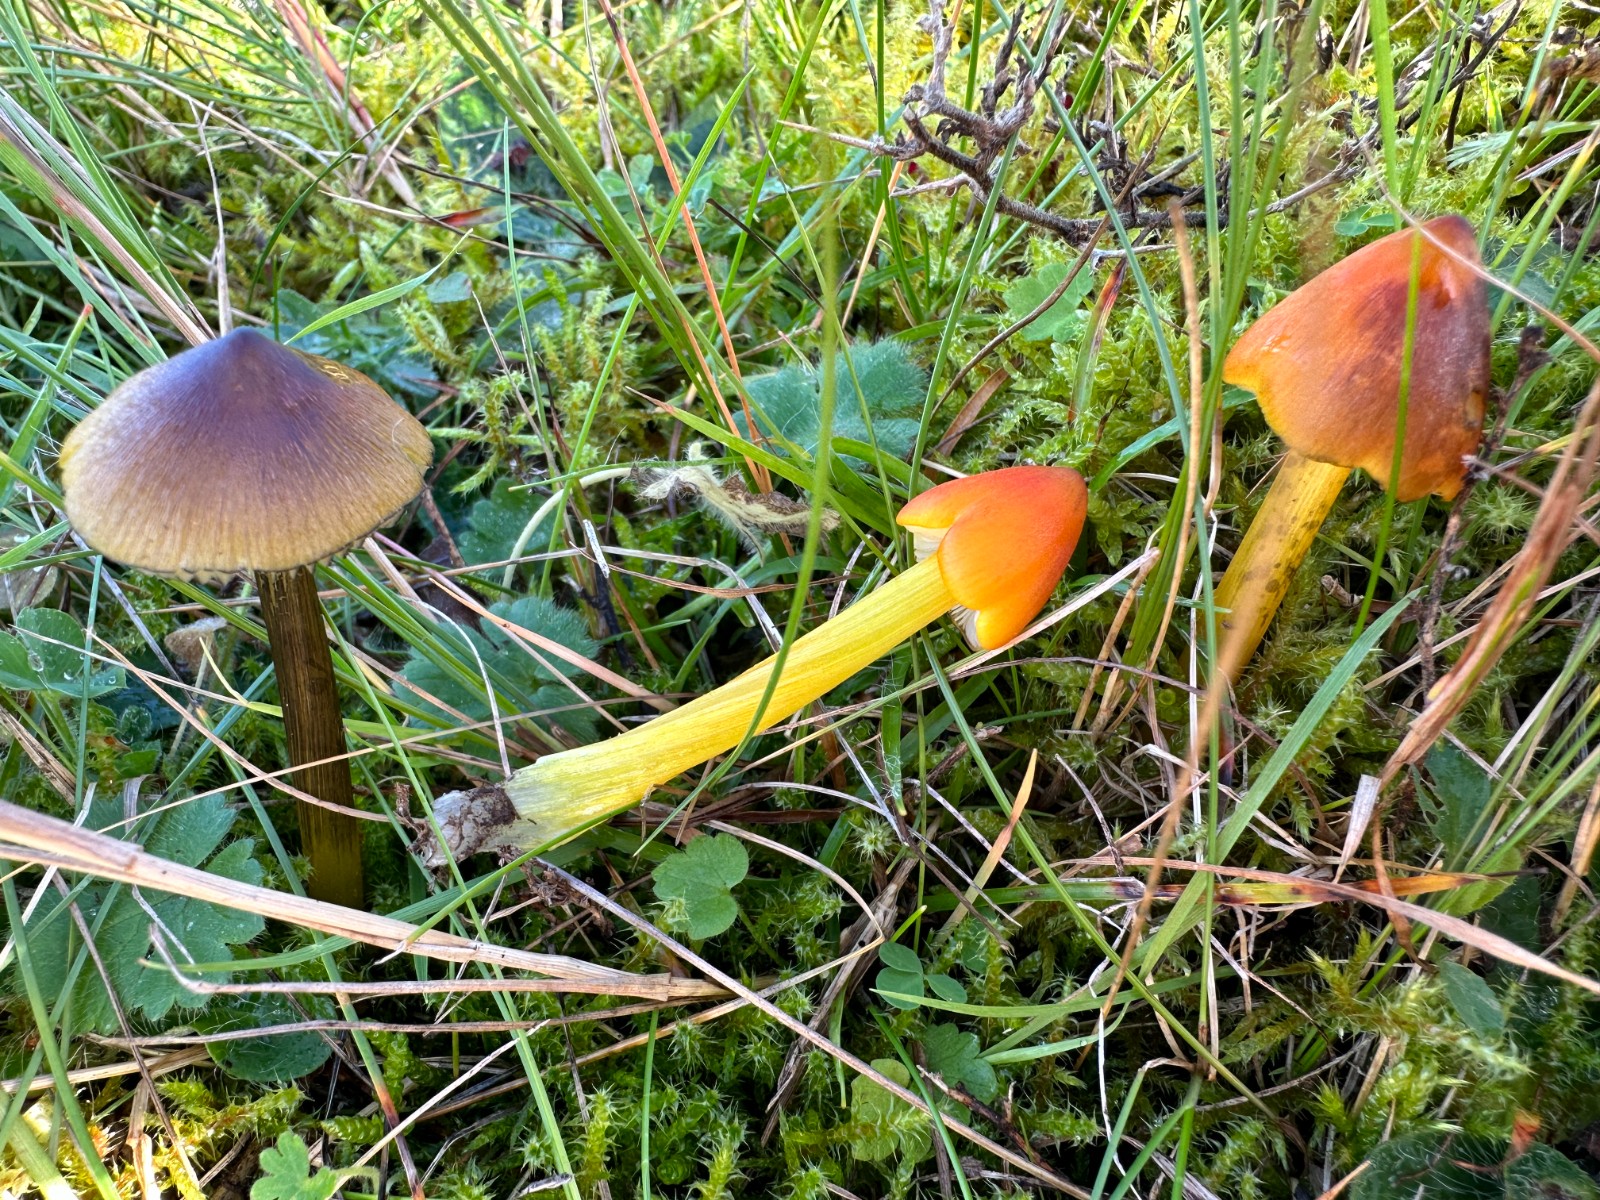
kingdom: Fungi
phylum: Basidiomycota
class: Agaricomycetes
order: Agaricales
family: Hygrophoraceae
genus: Hygrocybe
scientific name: Hygrocybe conica
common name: kegle-vokshat
